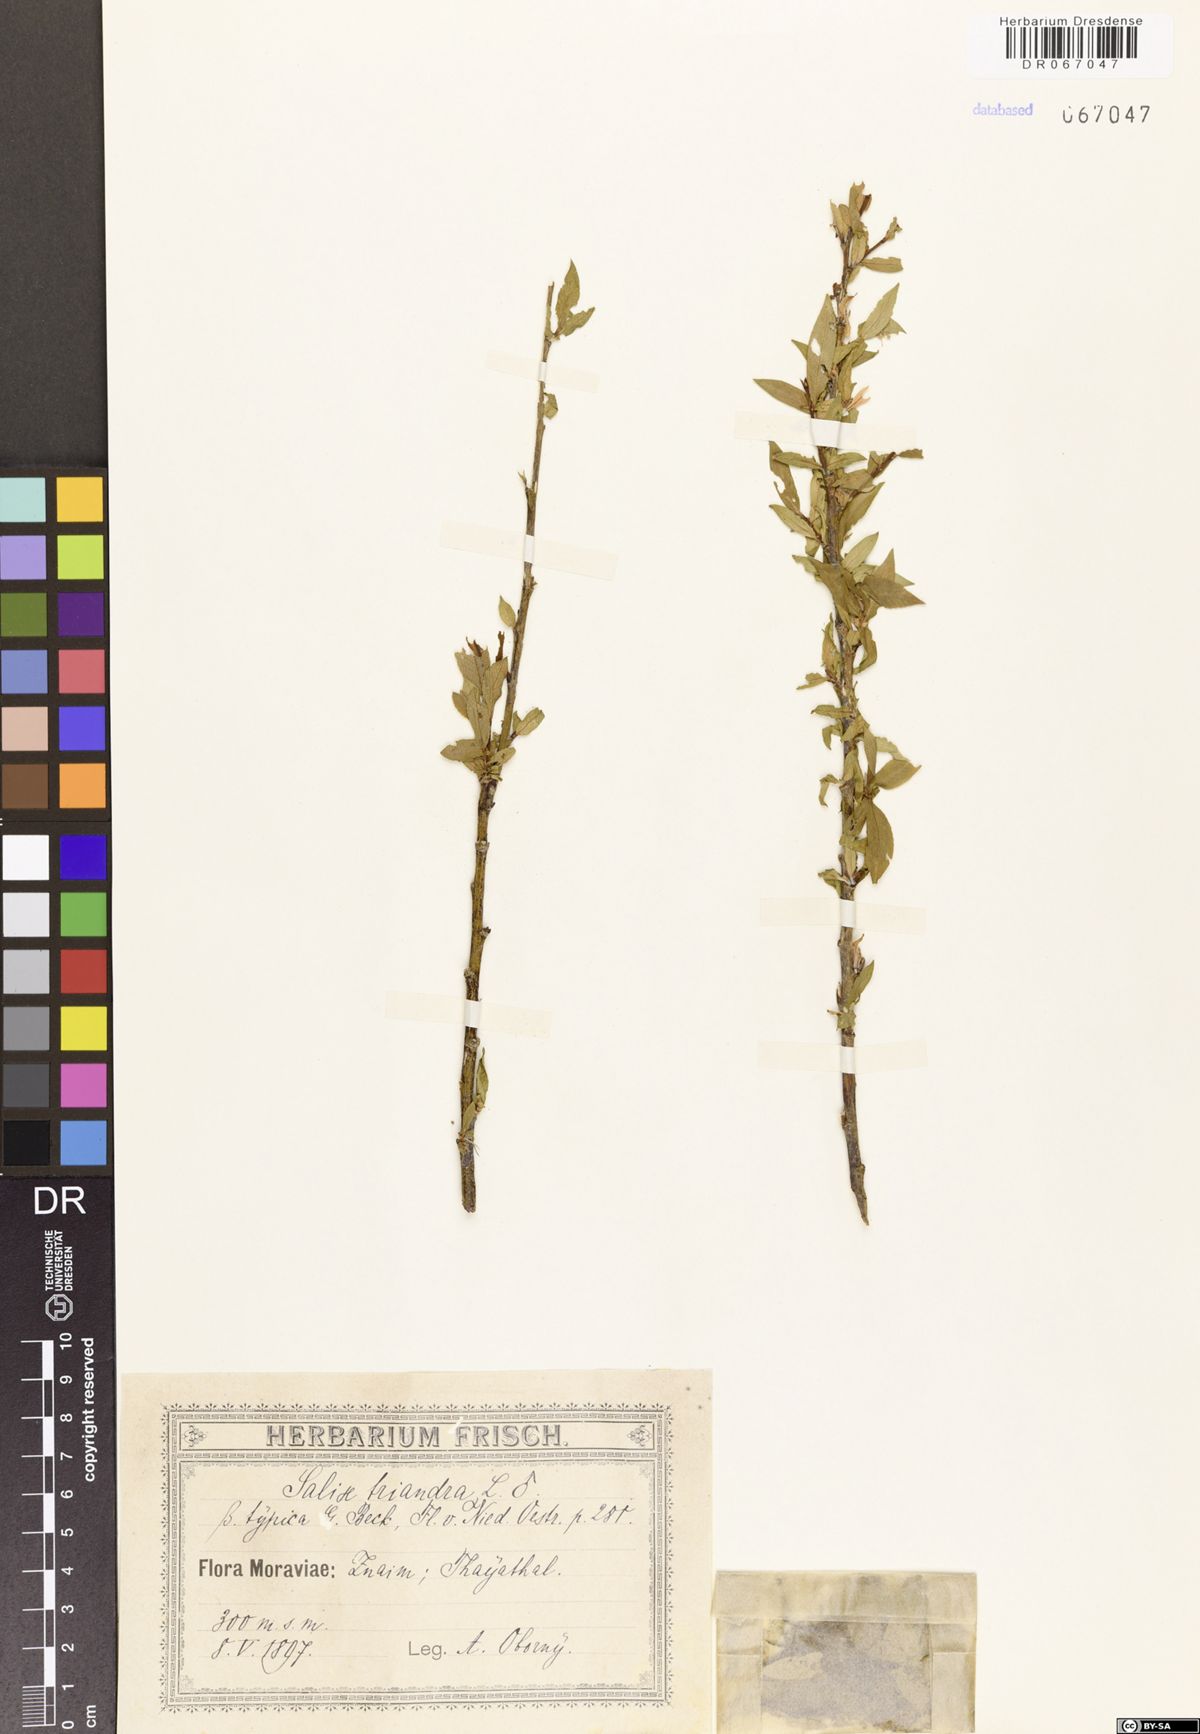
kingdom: Plantae
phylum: Tracheophyta
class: Magnoliopsida
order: Malpighiales
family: Salicaceae
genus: Salix
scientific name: Salix triandra
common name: Almond willow
